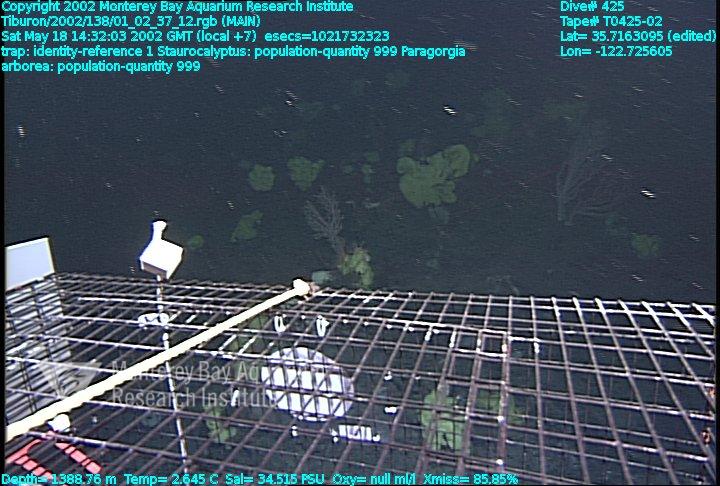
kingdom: Animalia
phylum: Porifera
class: Hexactinellida
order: Lyssacinosida
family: Rossellidae
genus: Staurocalyptus
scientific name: Staurocalyptus
